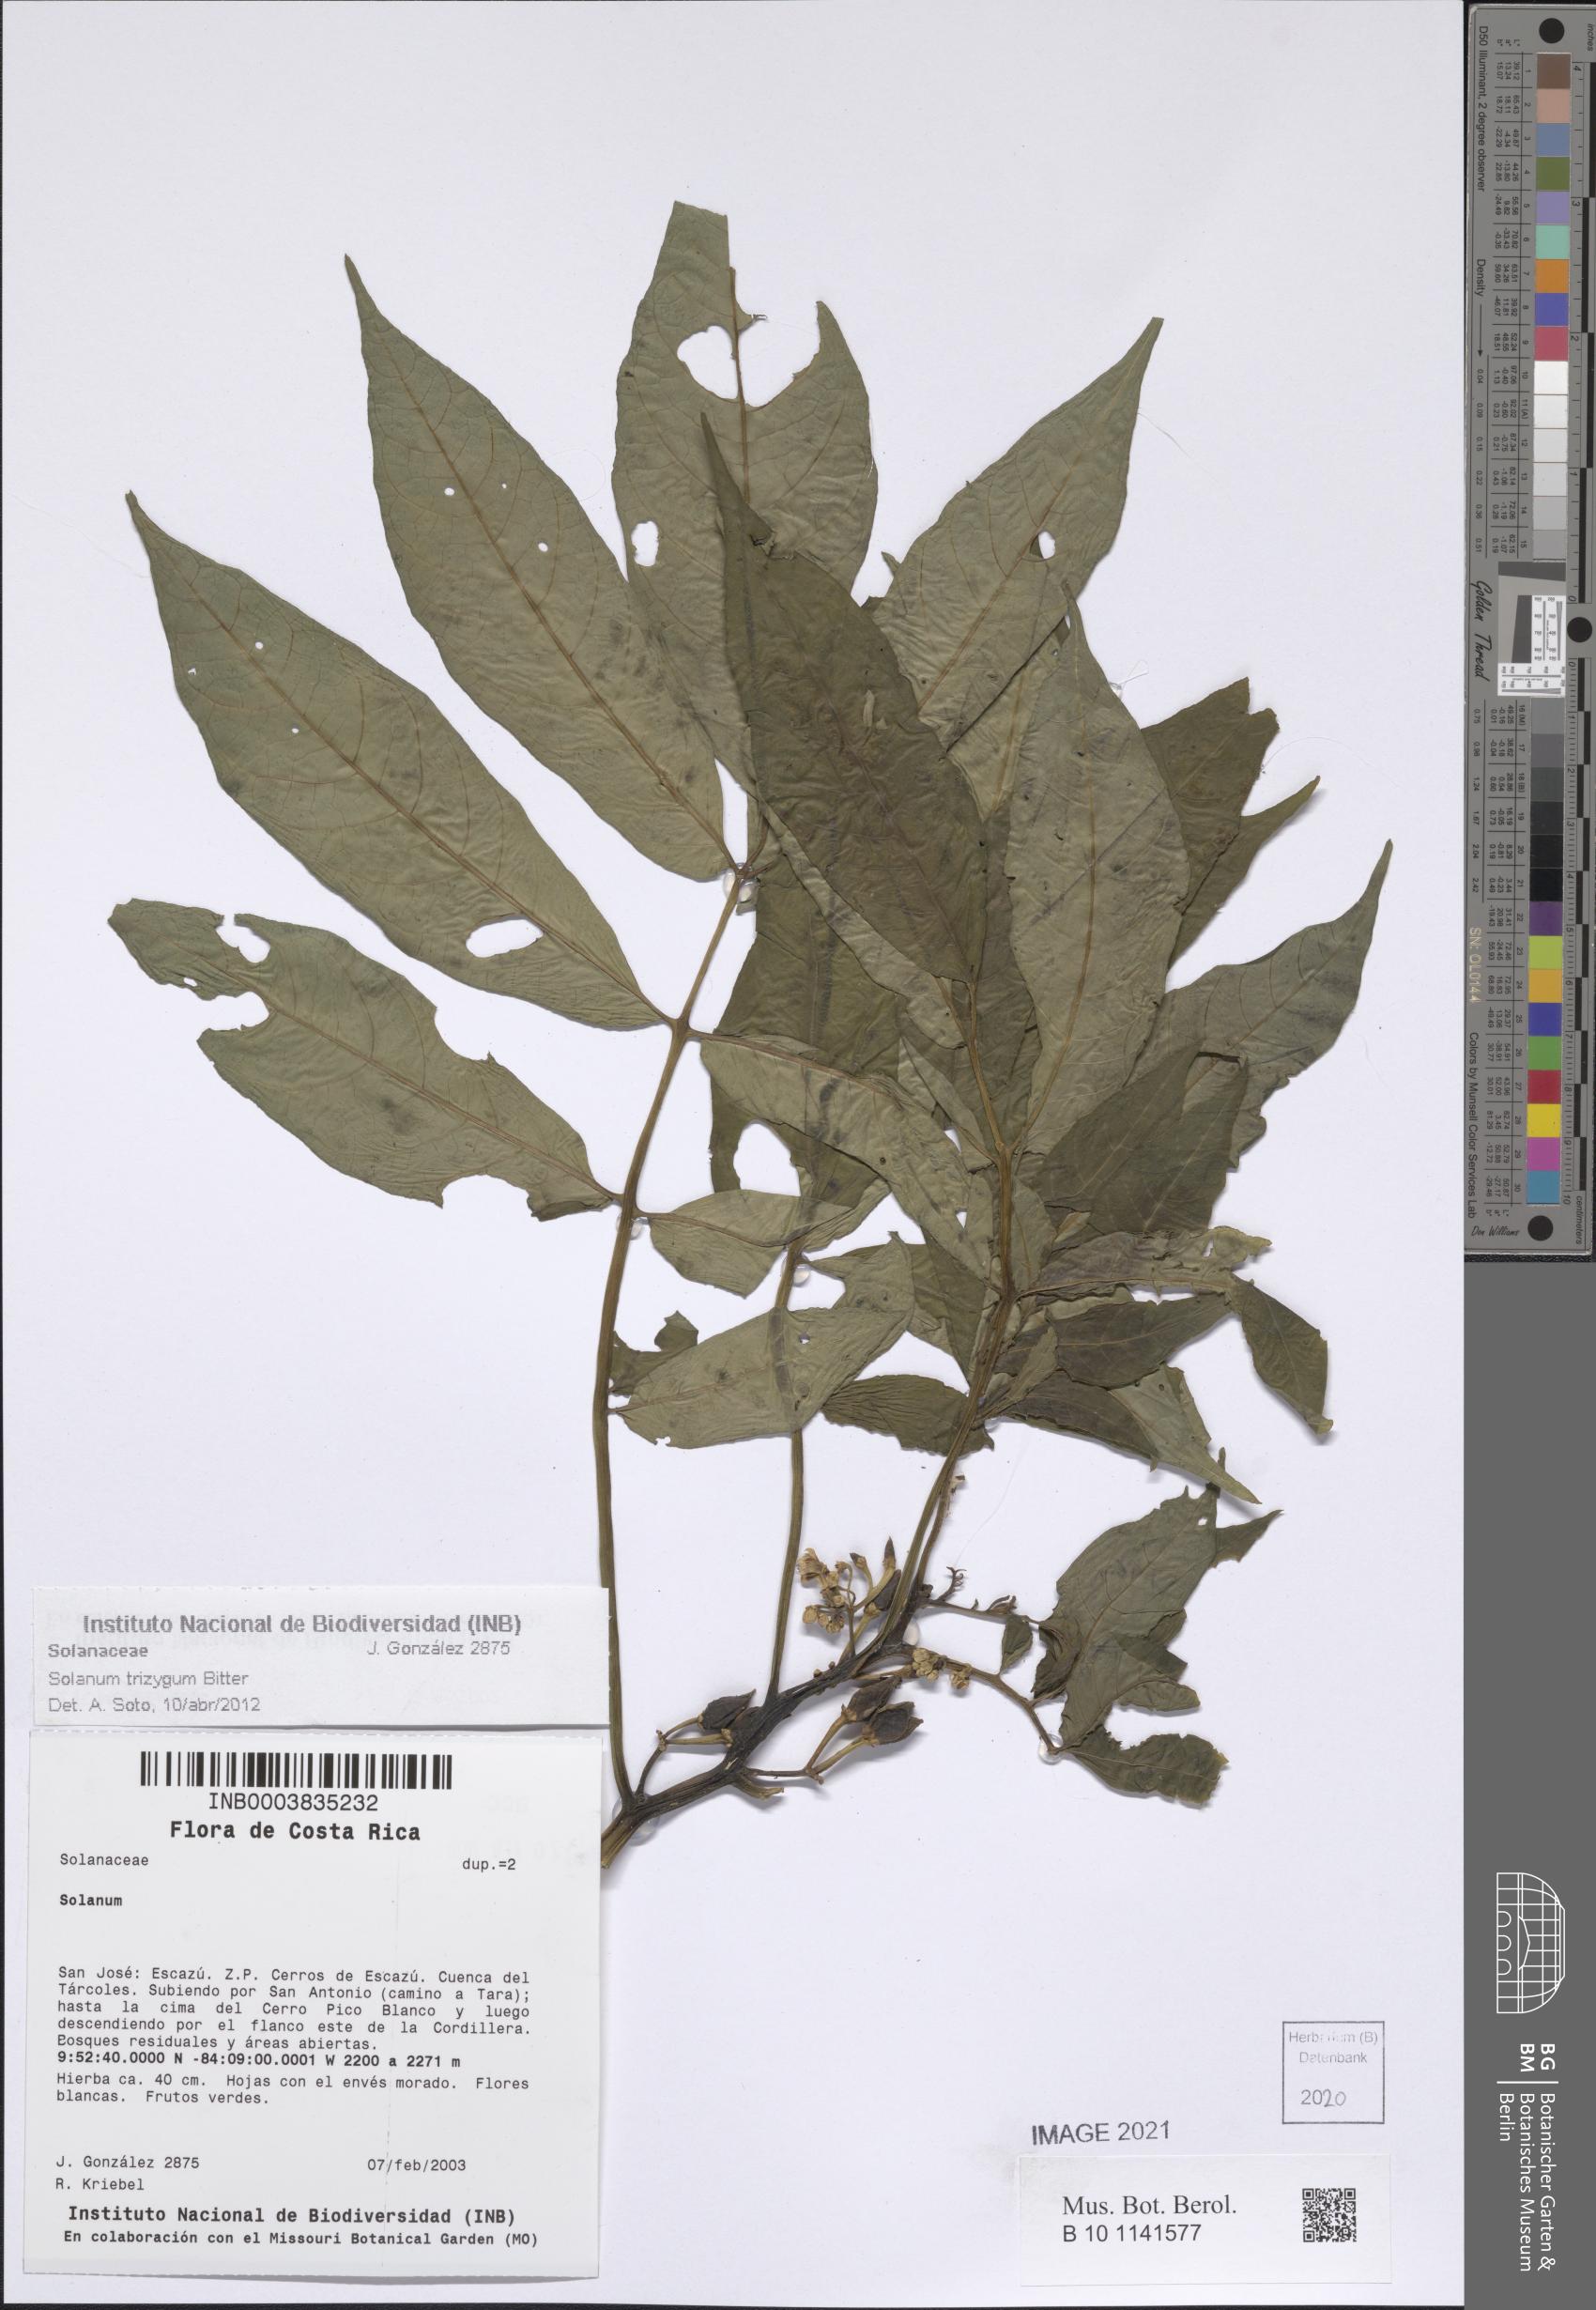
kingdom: Plantae
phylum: Tracheophyta
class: Magnoliopsida
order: Solanales
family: Solanaceae
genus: Solanum
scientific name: Solanum trizygum
